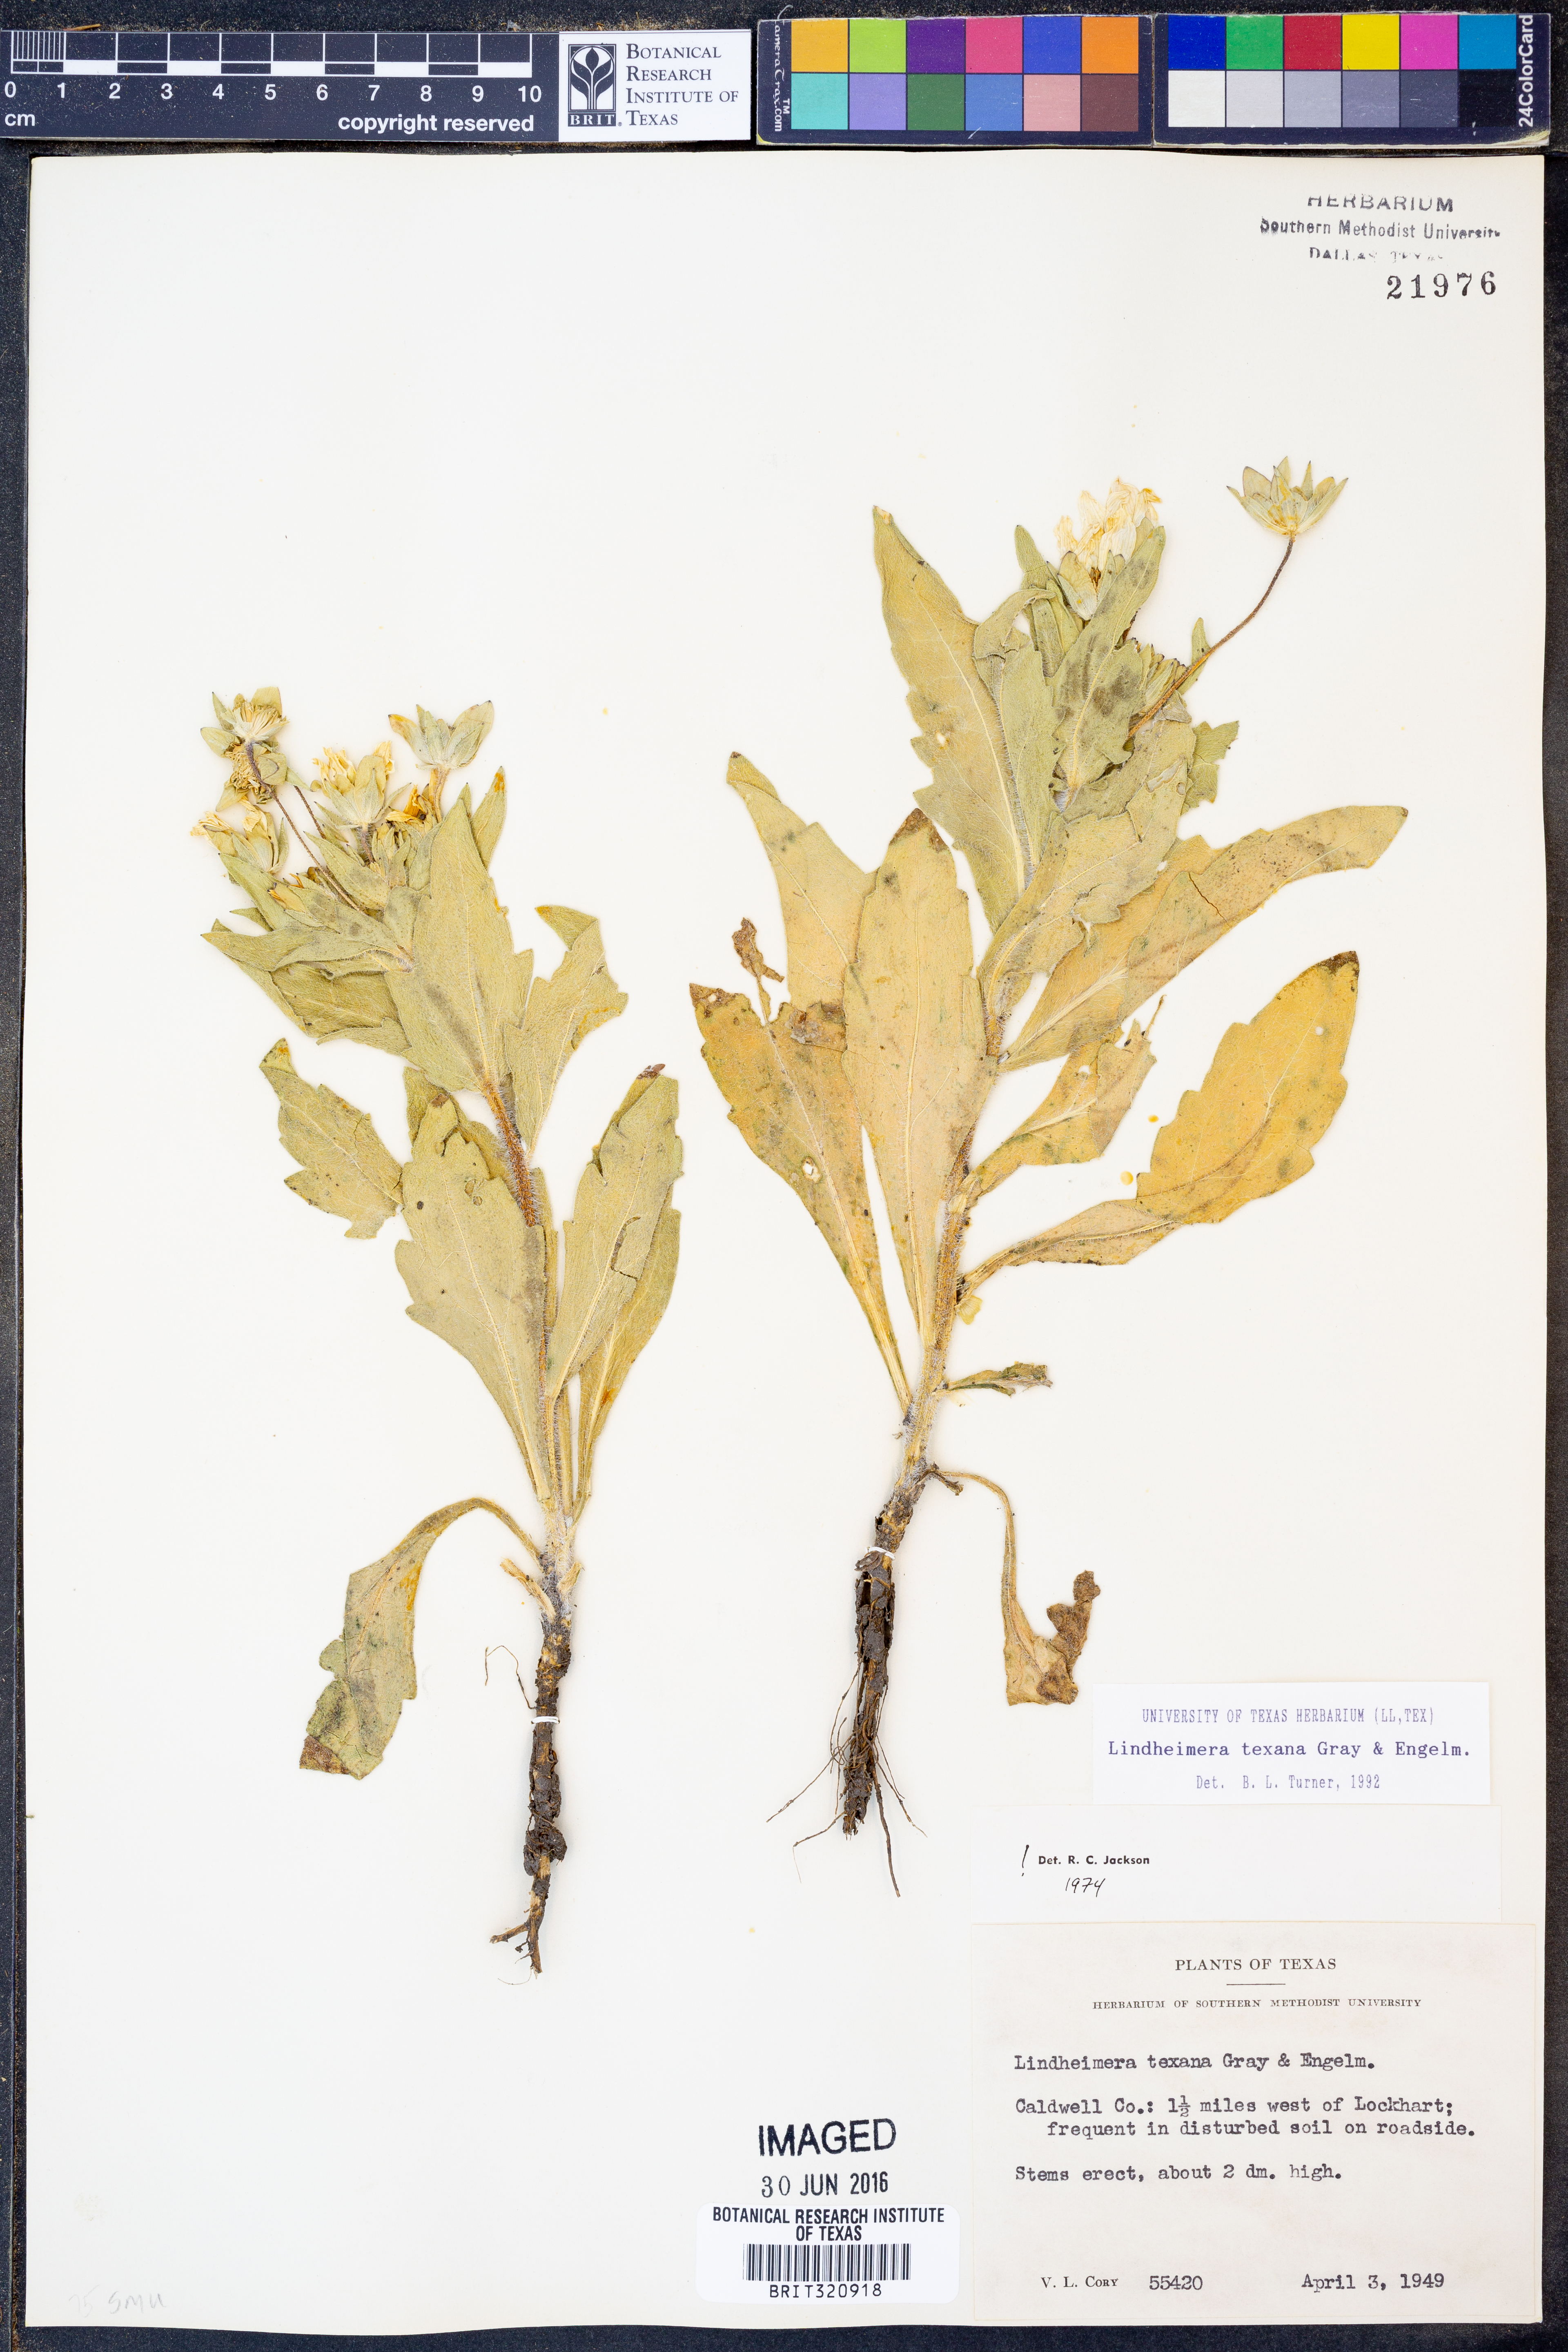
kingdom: Plantae
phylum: Tracheophyta
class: Magnoliopsida
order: Asterales
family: Asteraceae
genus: Lindheimera
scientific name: Lindheimera texana
